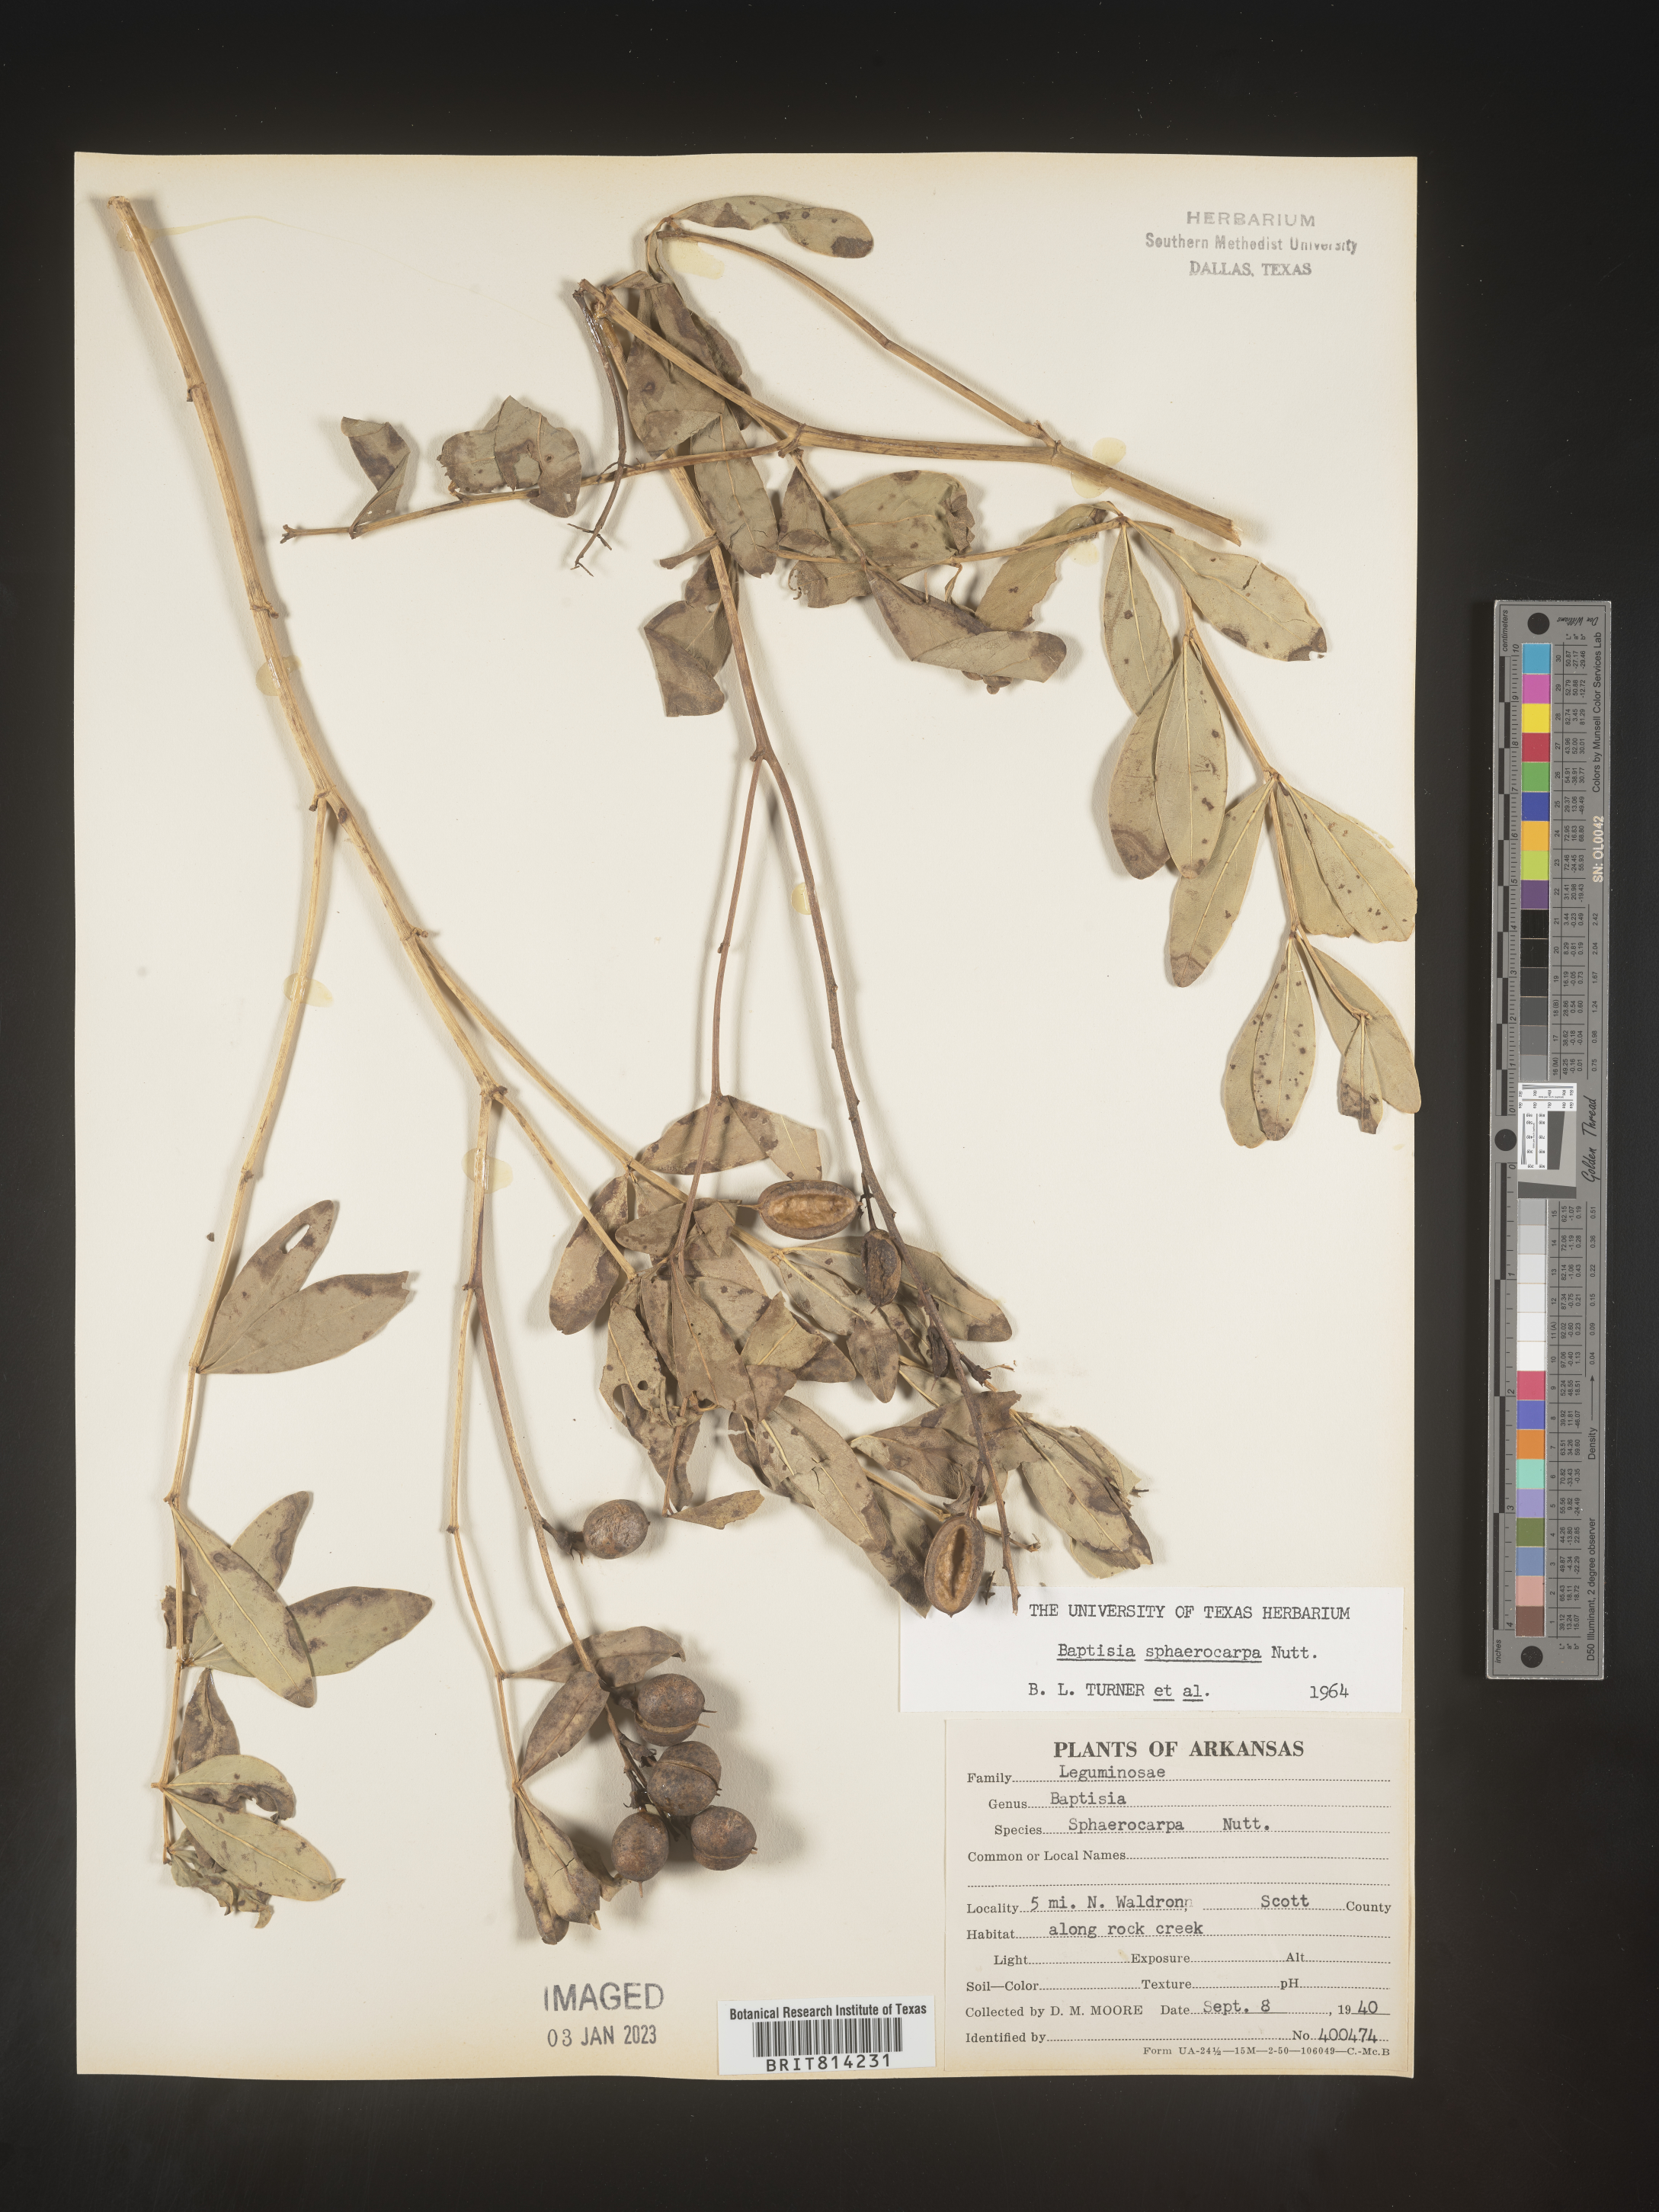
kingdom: Plantae
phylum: Tracheophyta
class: Magnoliopsida
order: Fabales
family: Fabaceae
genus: Baptisia
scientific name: Baptisia sphaerocarpa
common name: Round wild indigo
